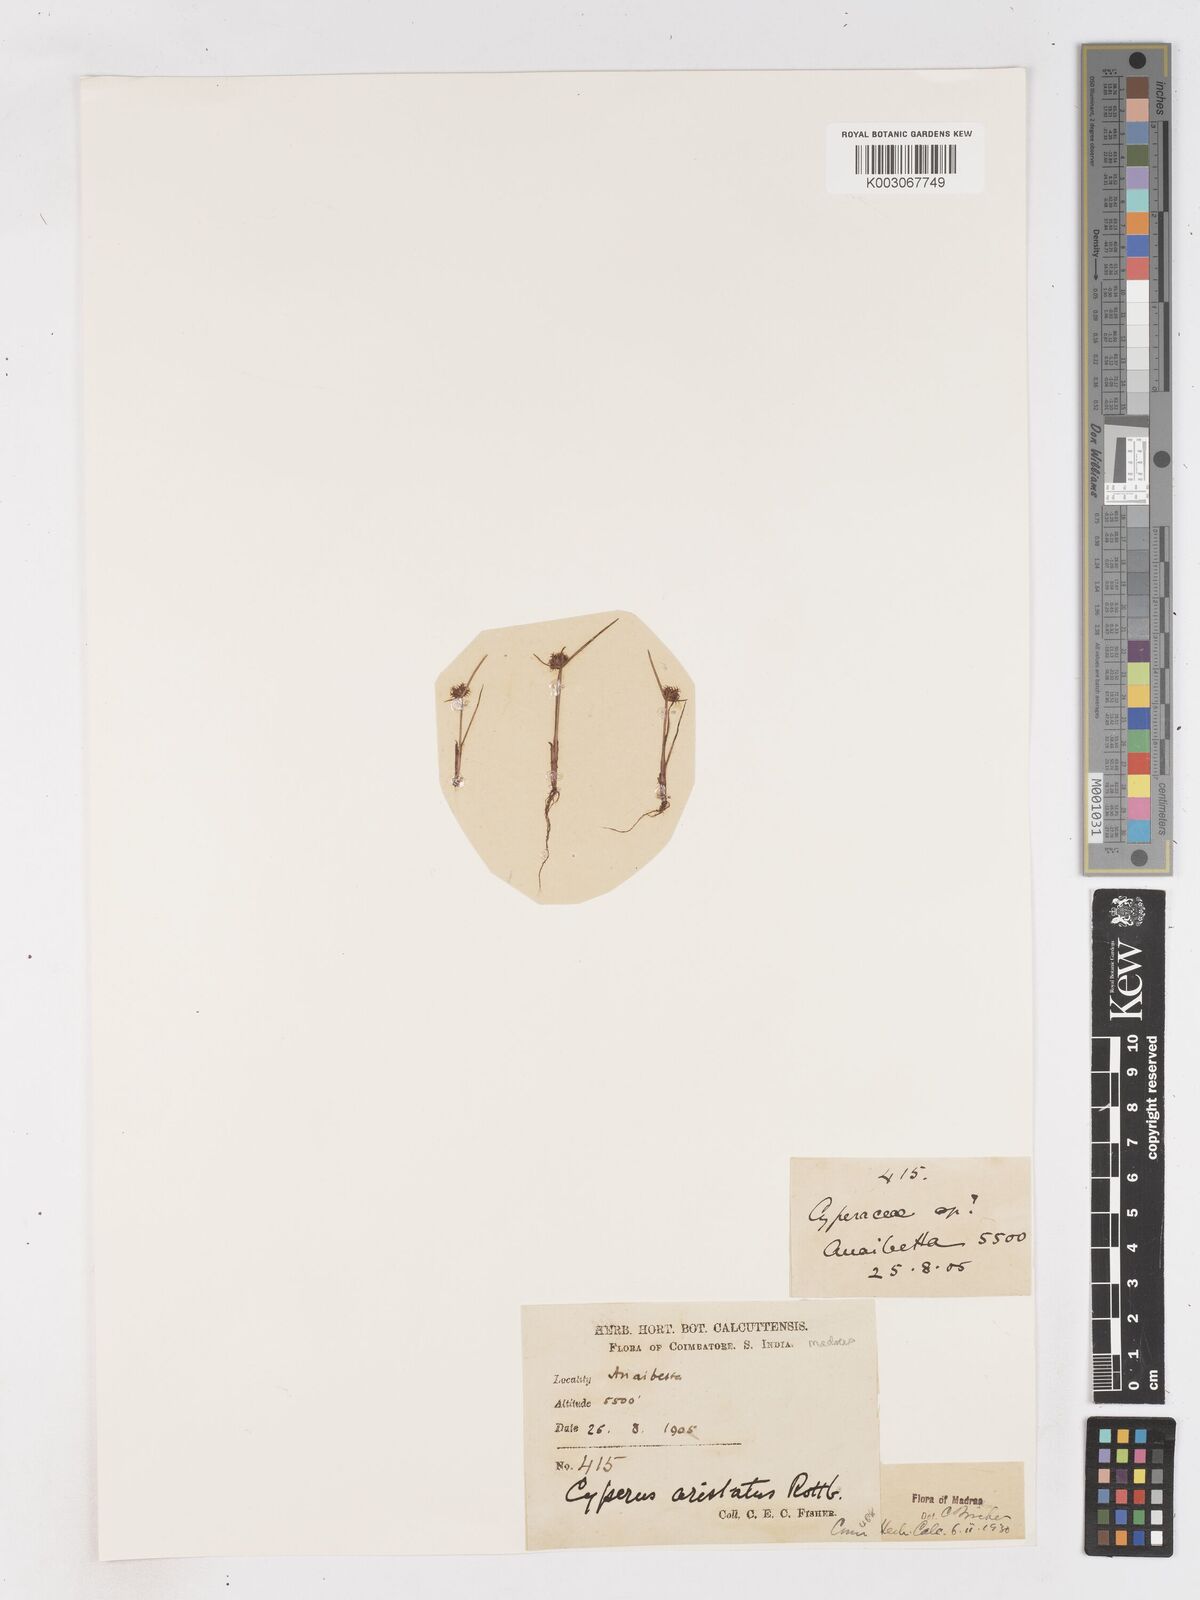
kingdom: Plantae
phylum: Tracheophyta
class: Liliopsida
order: Poales
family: Cyperaceae
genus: Cyperus
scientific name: Cyperus squarrosus
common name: Awned cyperus
